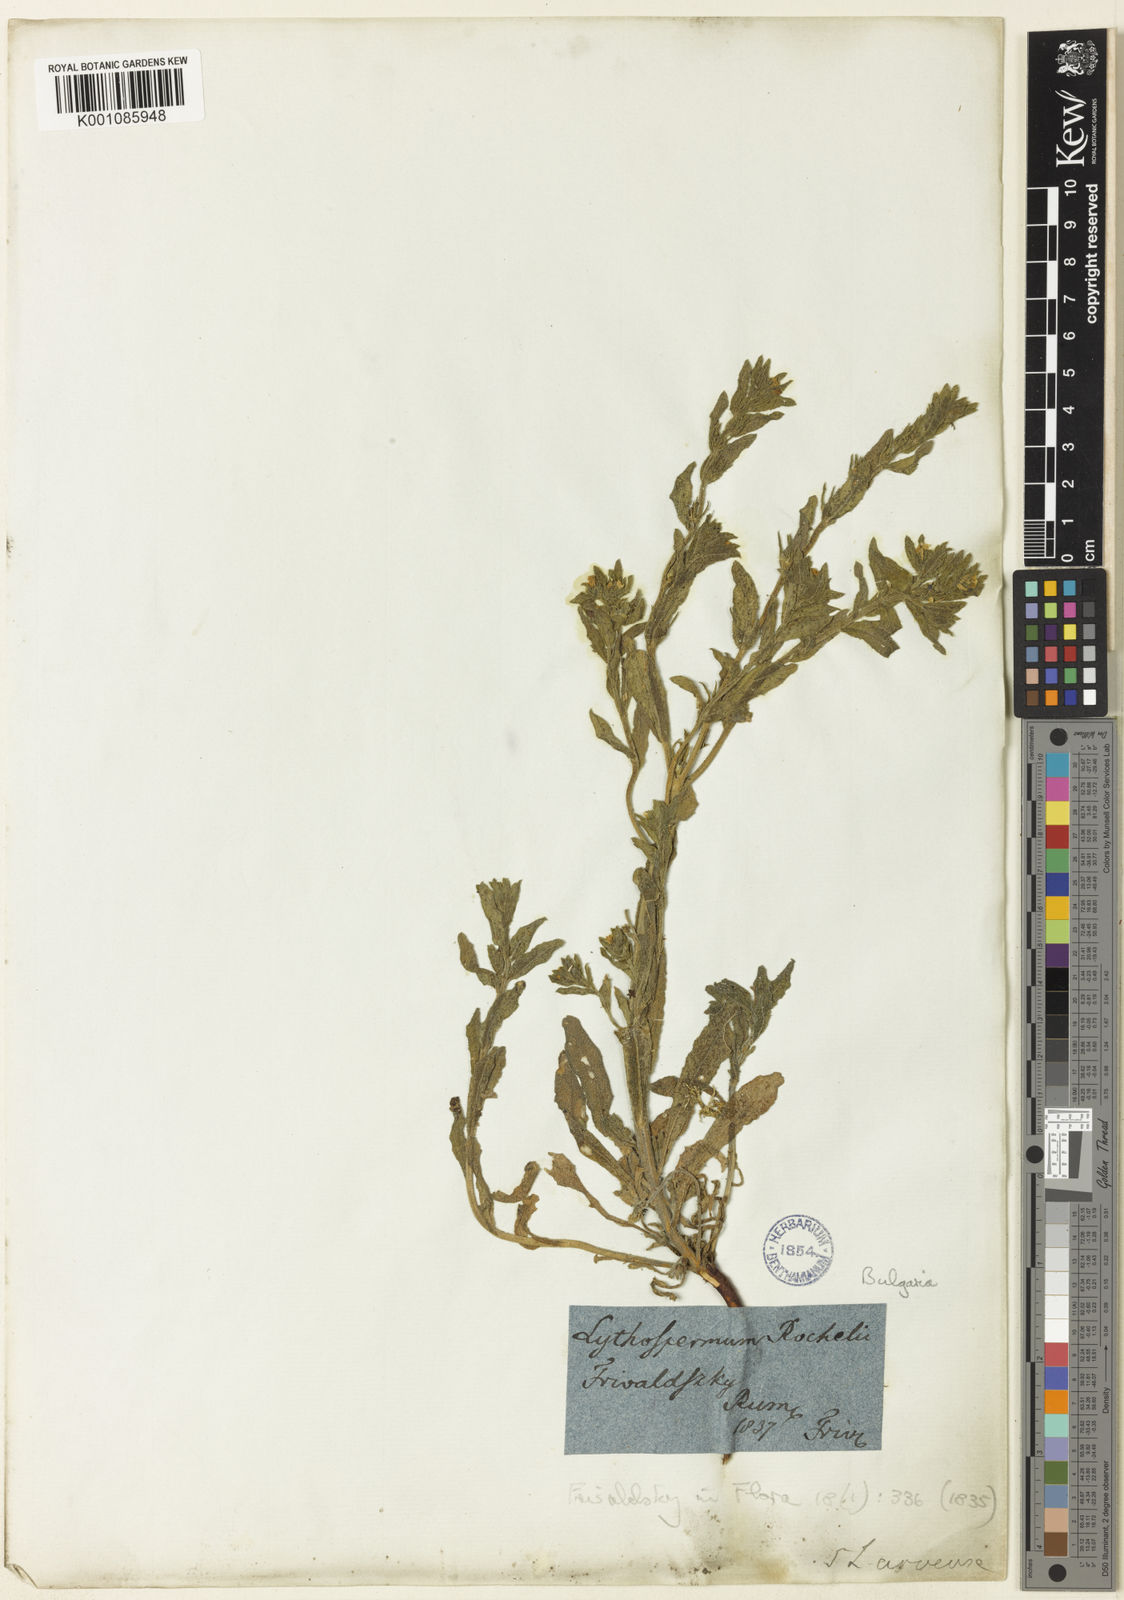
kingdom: Plantae
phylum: Tracheophyta
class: Magnoliopsida
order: Boraginales
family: Boraginaceae
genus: Buglossoides
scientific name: Buglossoides glandulosa
